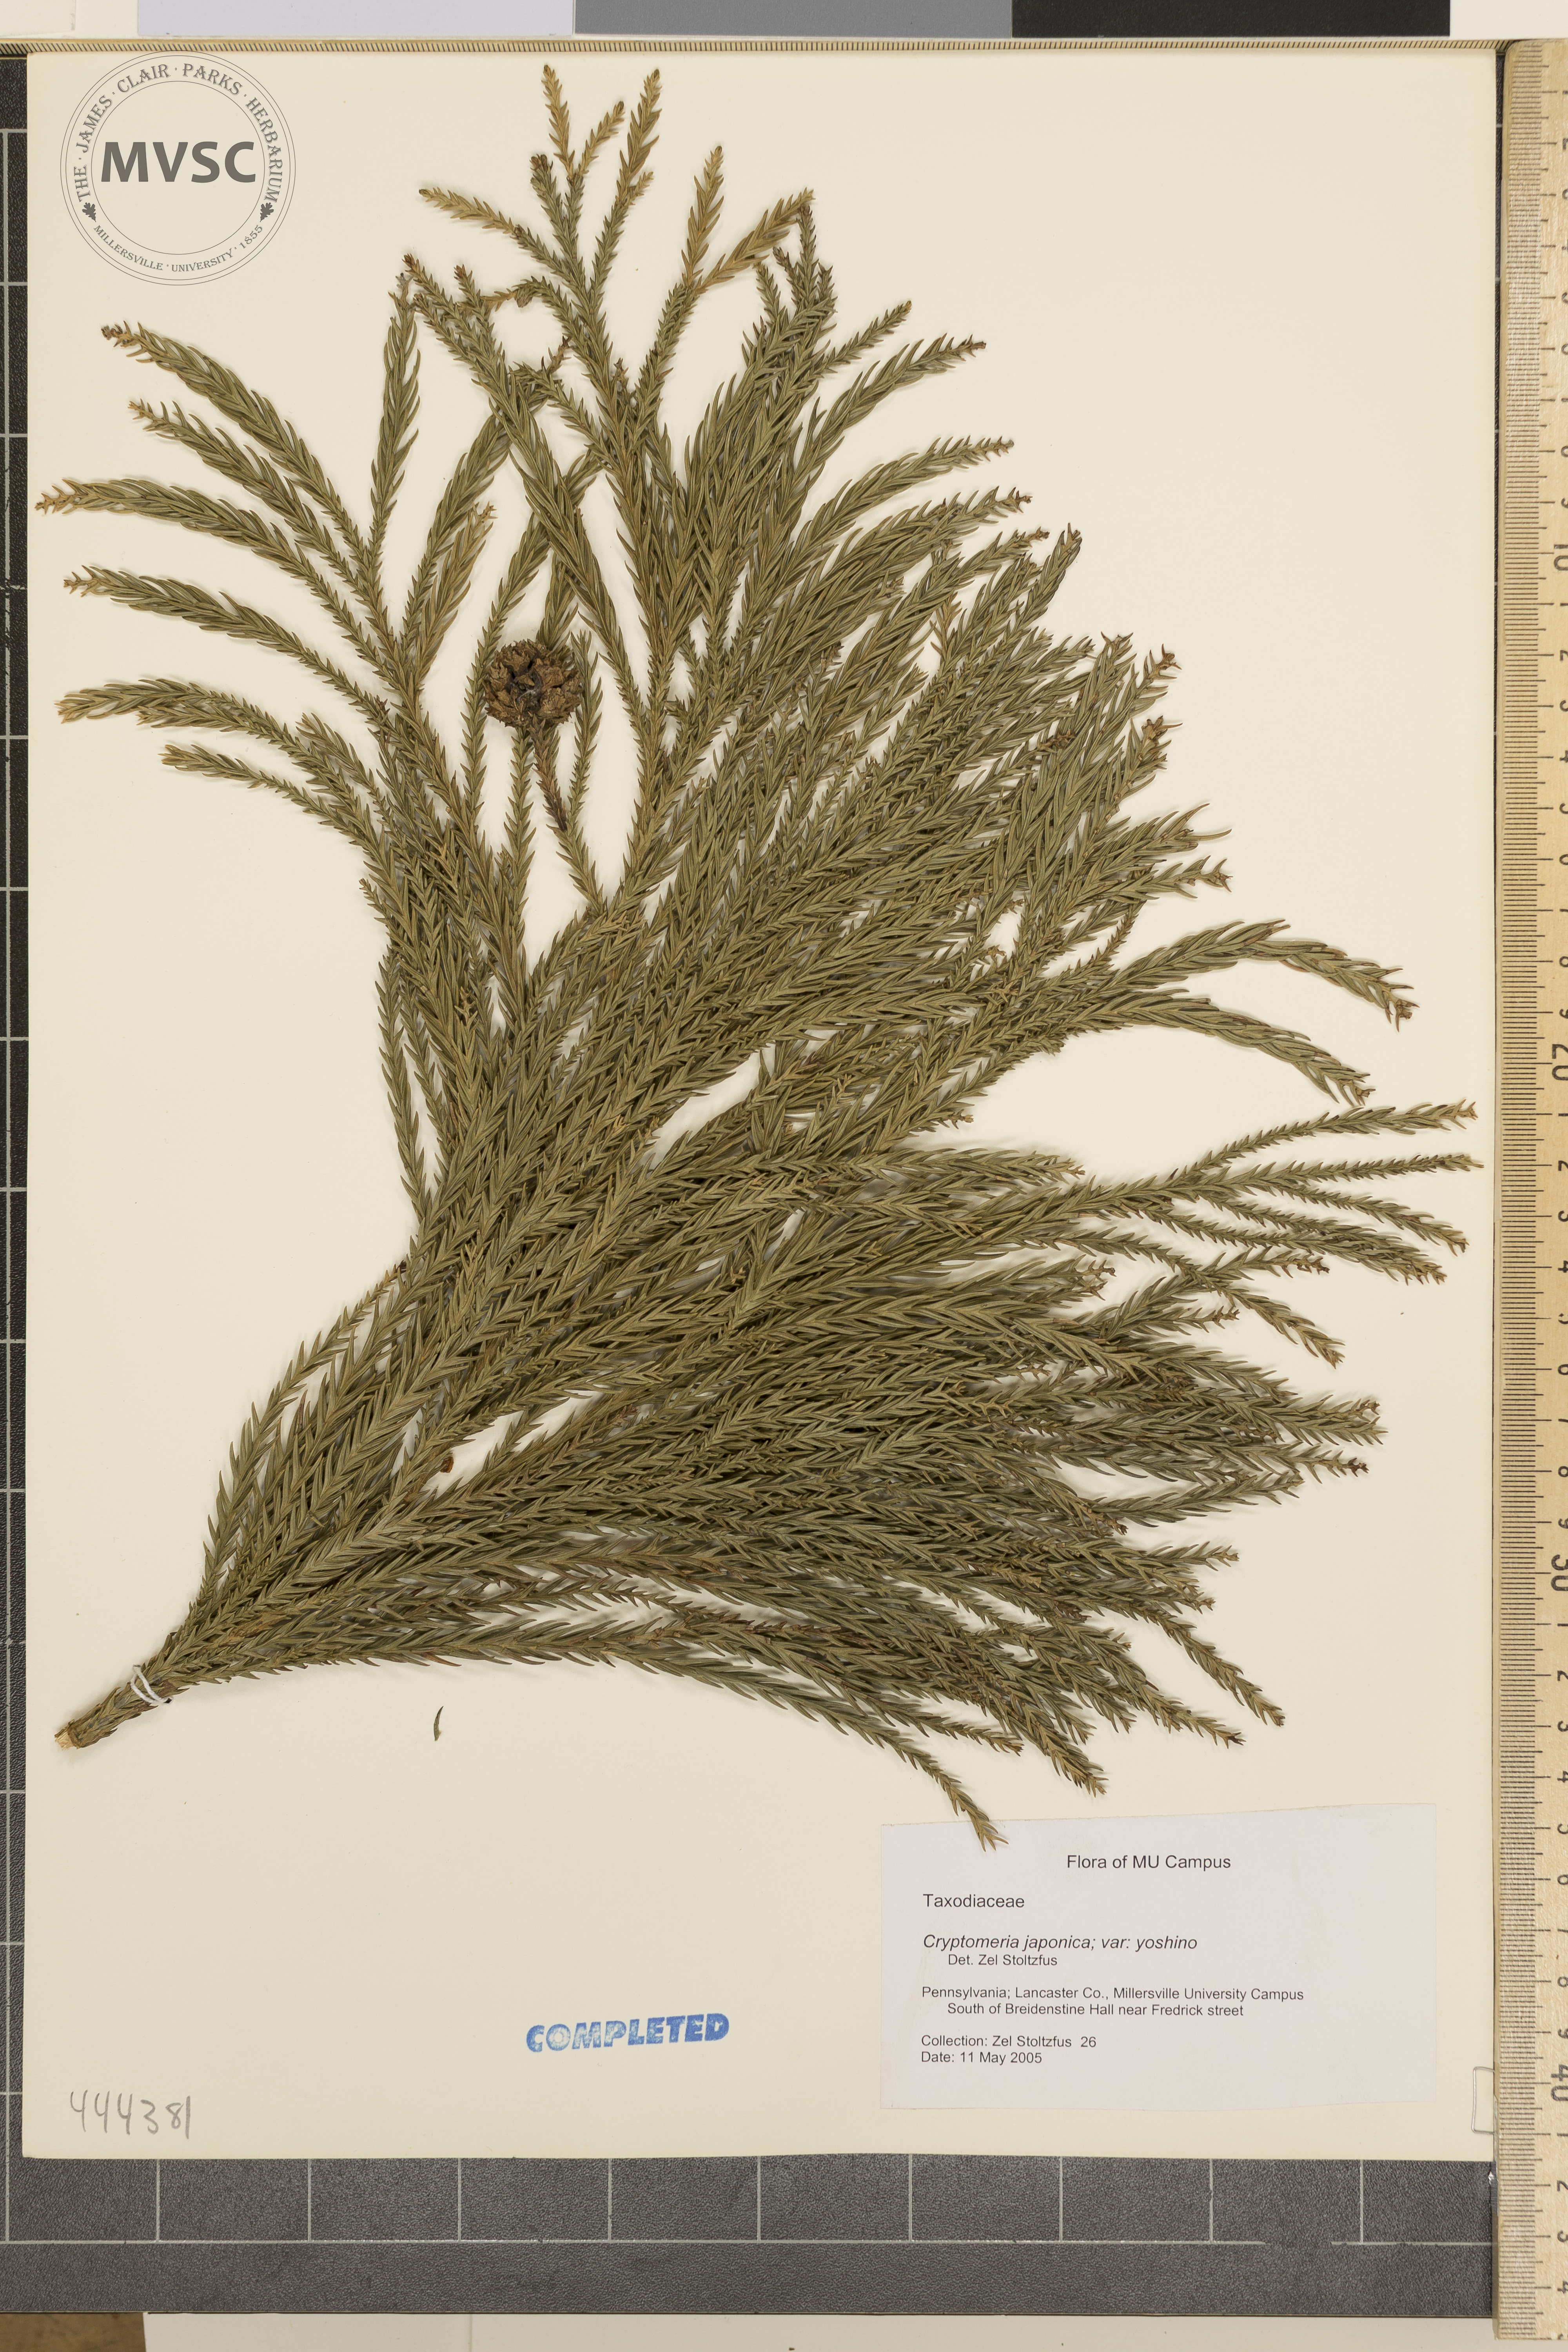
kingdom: Plantae
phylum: Tracheophyta
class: Pinopsida
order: Pinales
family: Cupressaceae
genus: Cryptomeria
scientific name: Cryptomeria japonica
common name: Japanese cedar
